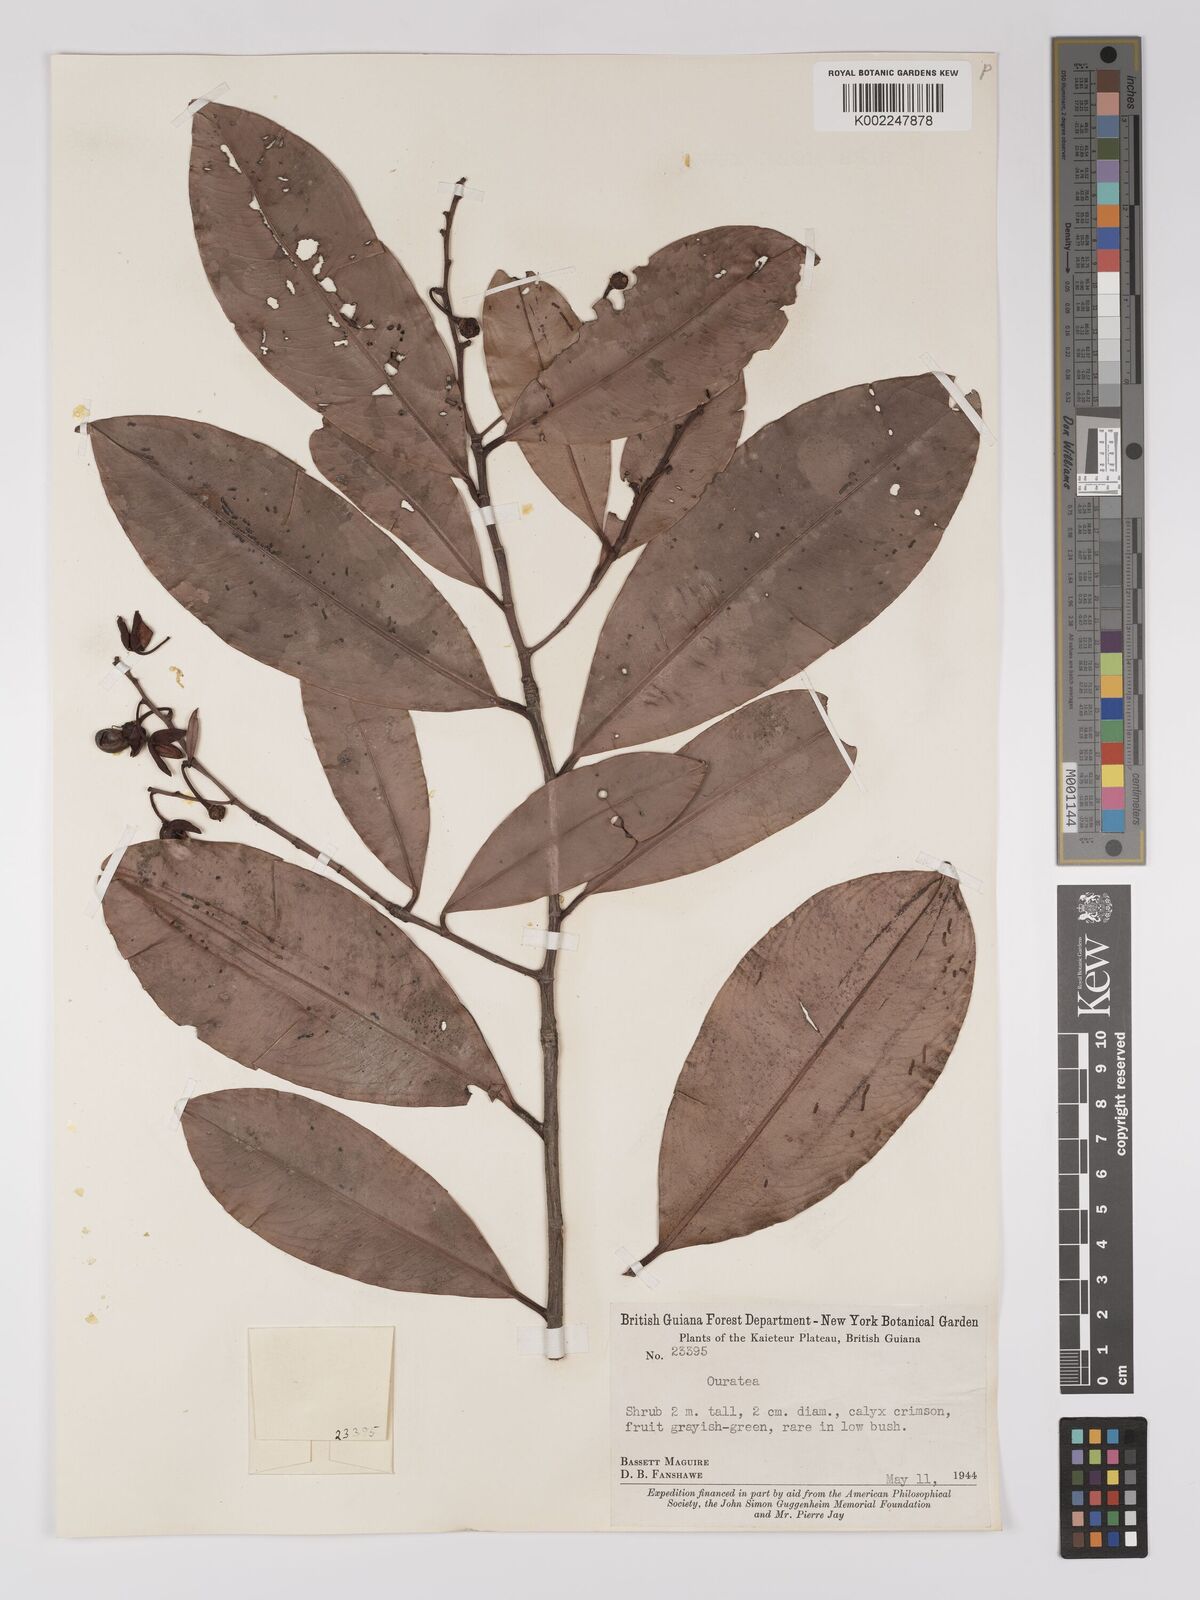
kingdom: Plantae
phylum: Tracheophyta
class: Magnoliopsida
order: Malpighiales
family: Ochnaceae
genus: Ouratea
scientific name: Ouratea
